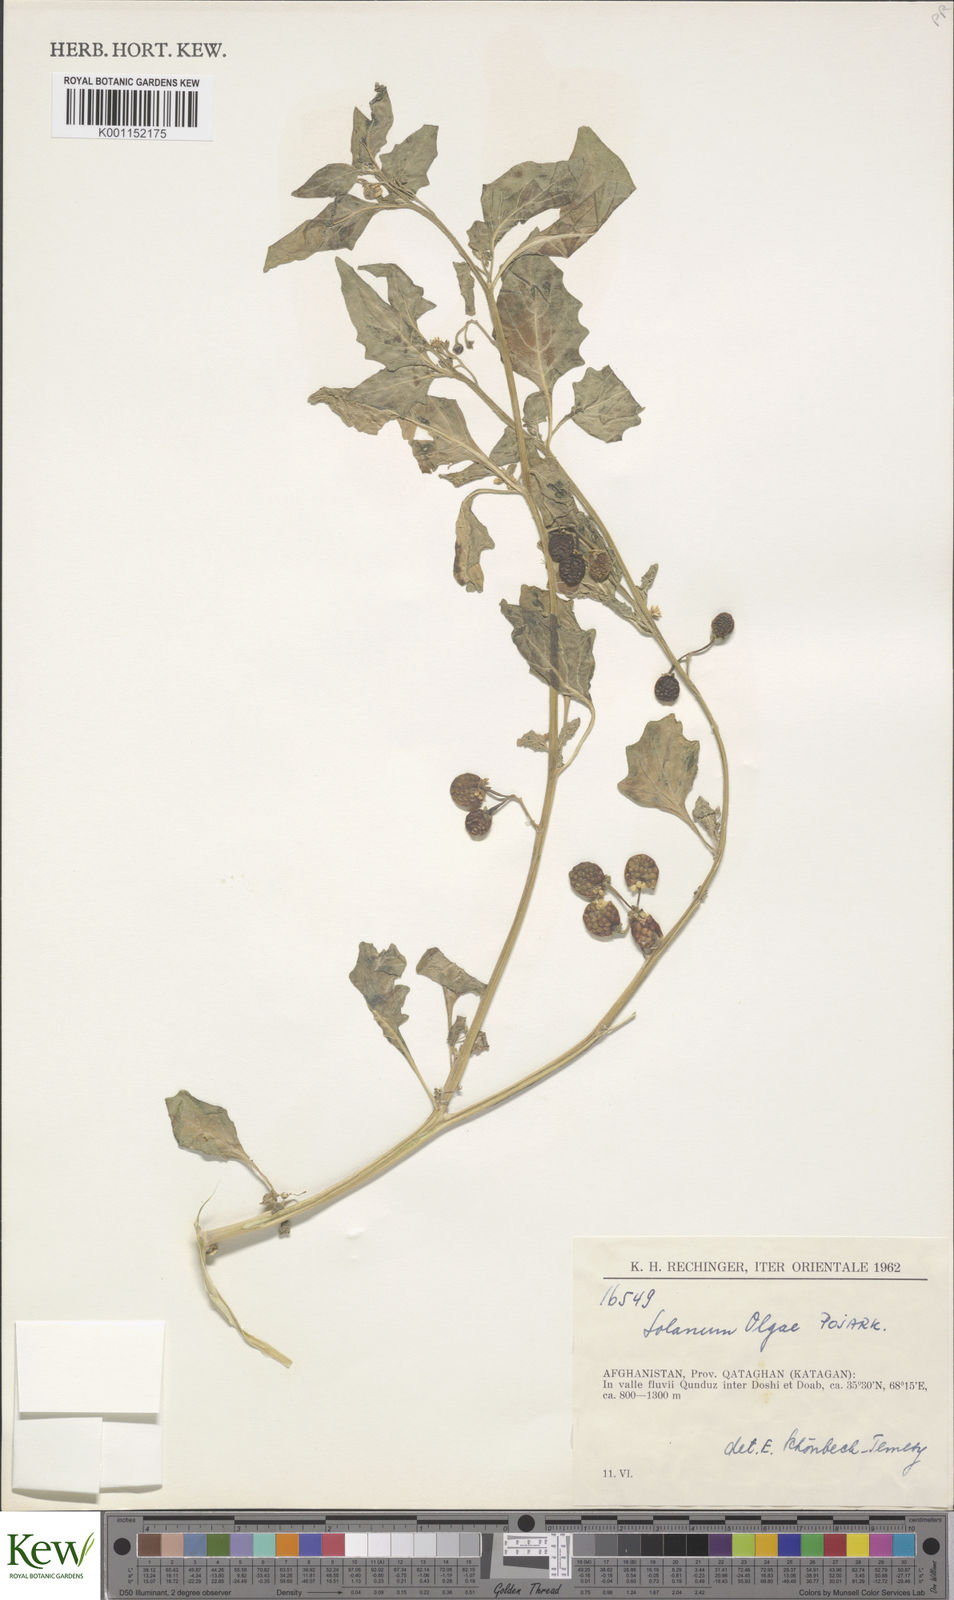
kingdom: Plantae
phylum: Tracheophyta
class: Magnoliopsida
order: Solanales
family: Solanaceae
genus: Solanum
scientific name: Solanum villosum
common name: Red nightshade
